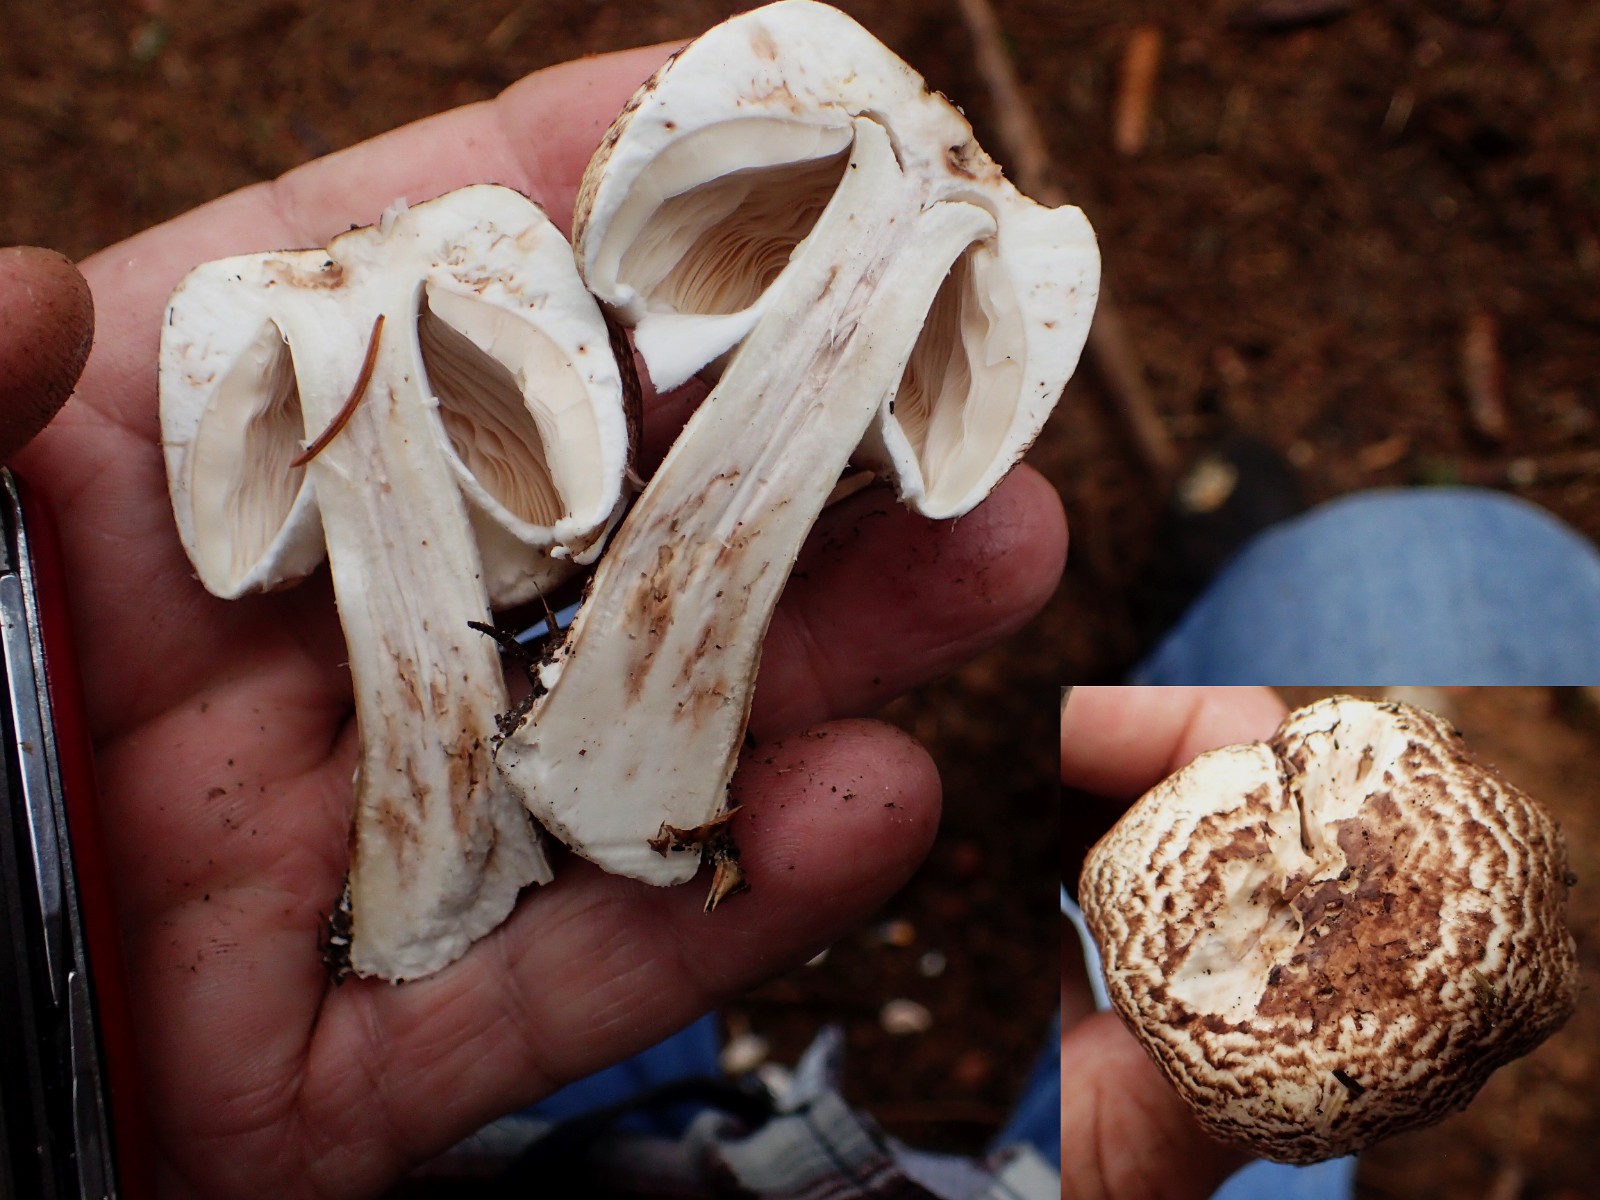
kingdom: Fungi
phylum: Basidiomycota
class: Agaricomycetes
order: Agaricales
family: Agaricaceae
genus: Agaricus
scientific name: Agaricus impudicus
